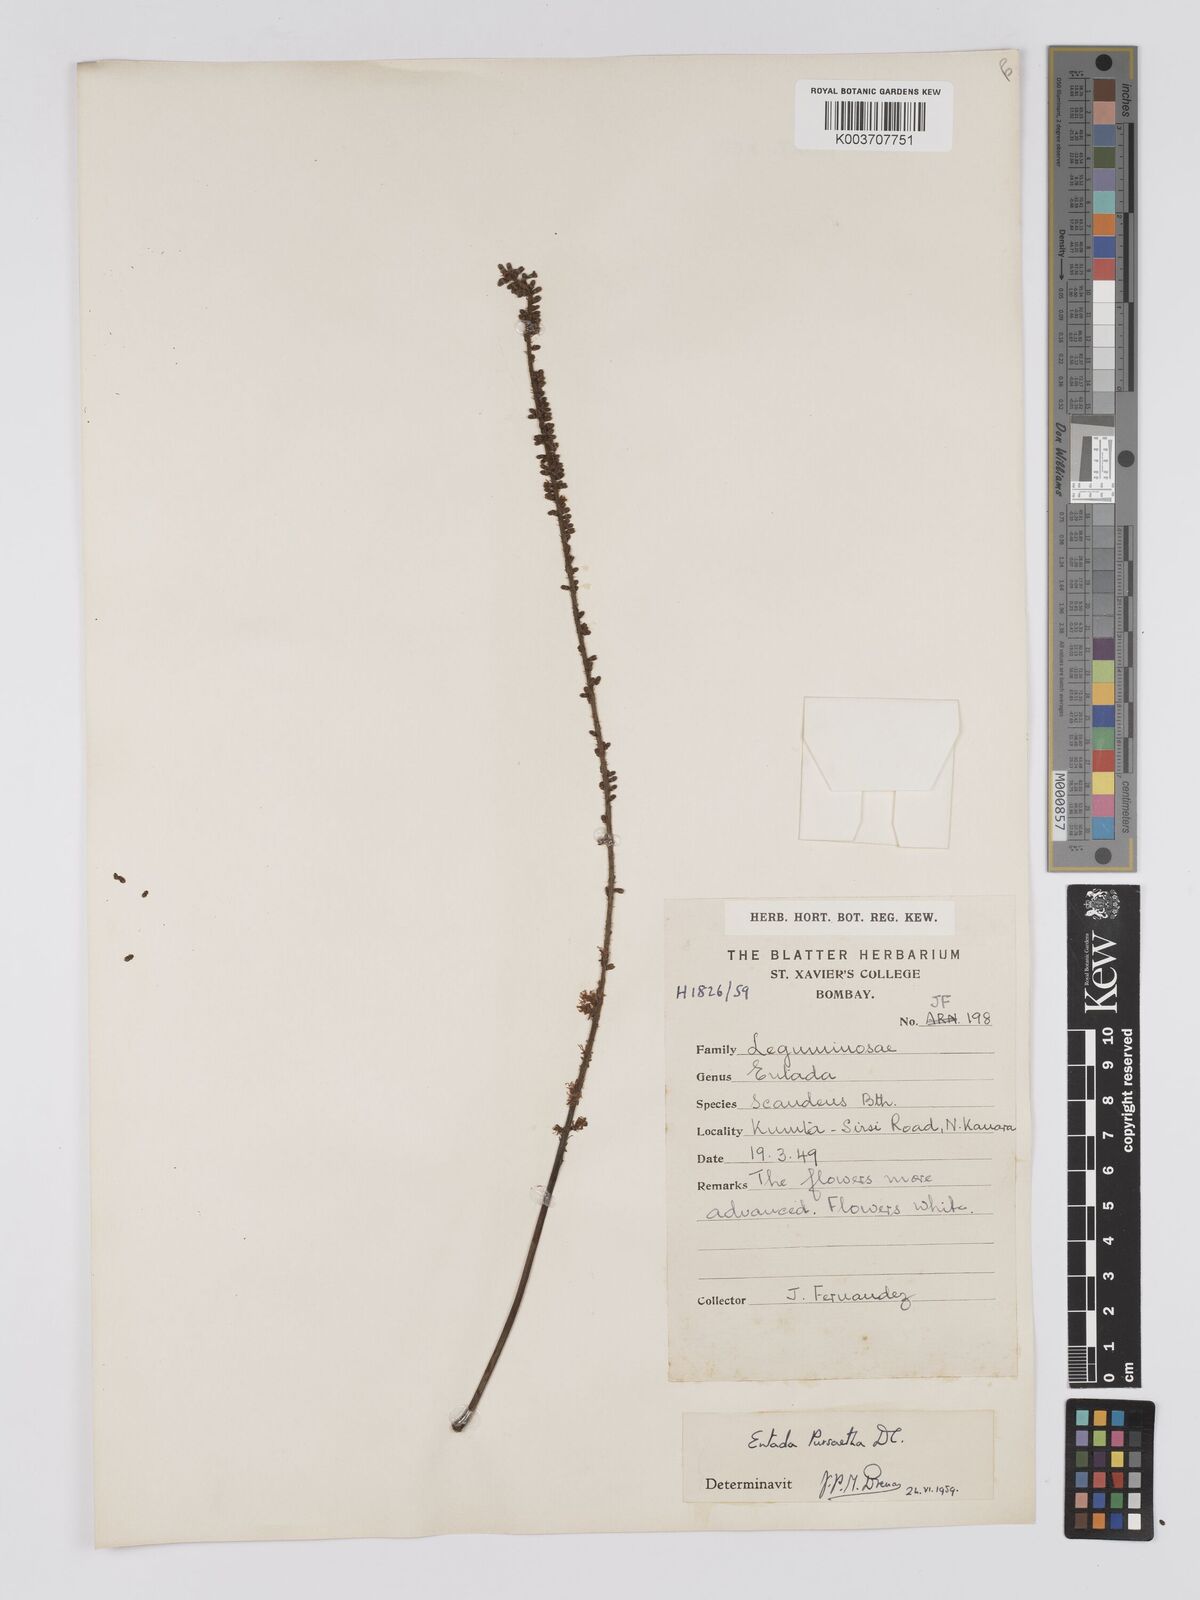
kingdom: Plantae
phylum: Tracheophyta
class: Magnoliopsida
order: Fabales
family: Fabaceae
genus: Entada
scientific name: Entada rheedei
